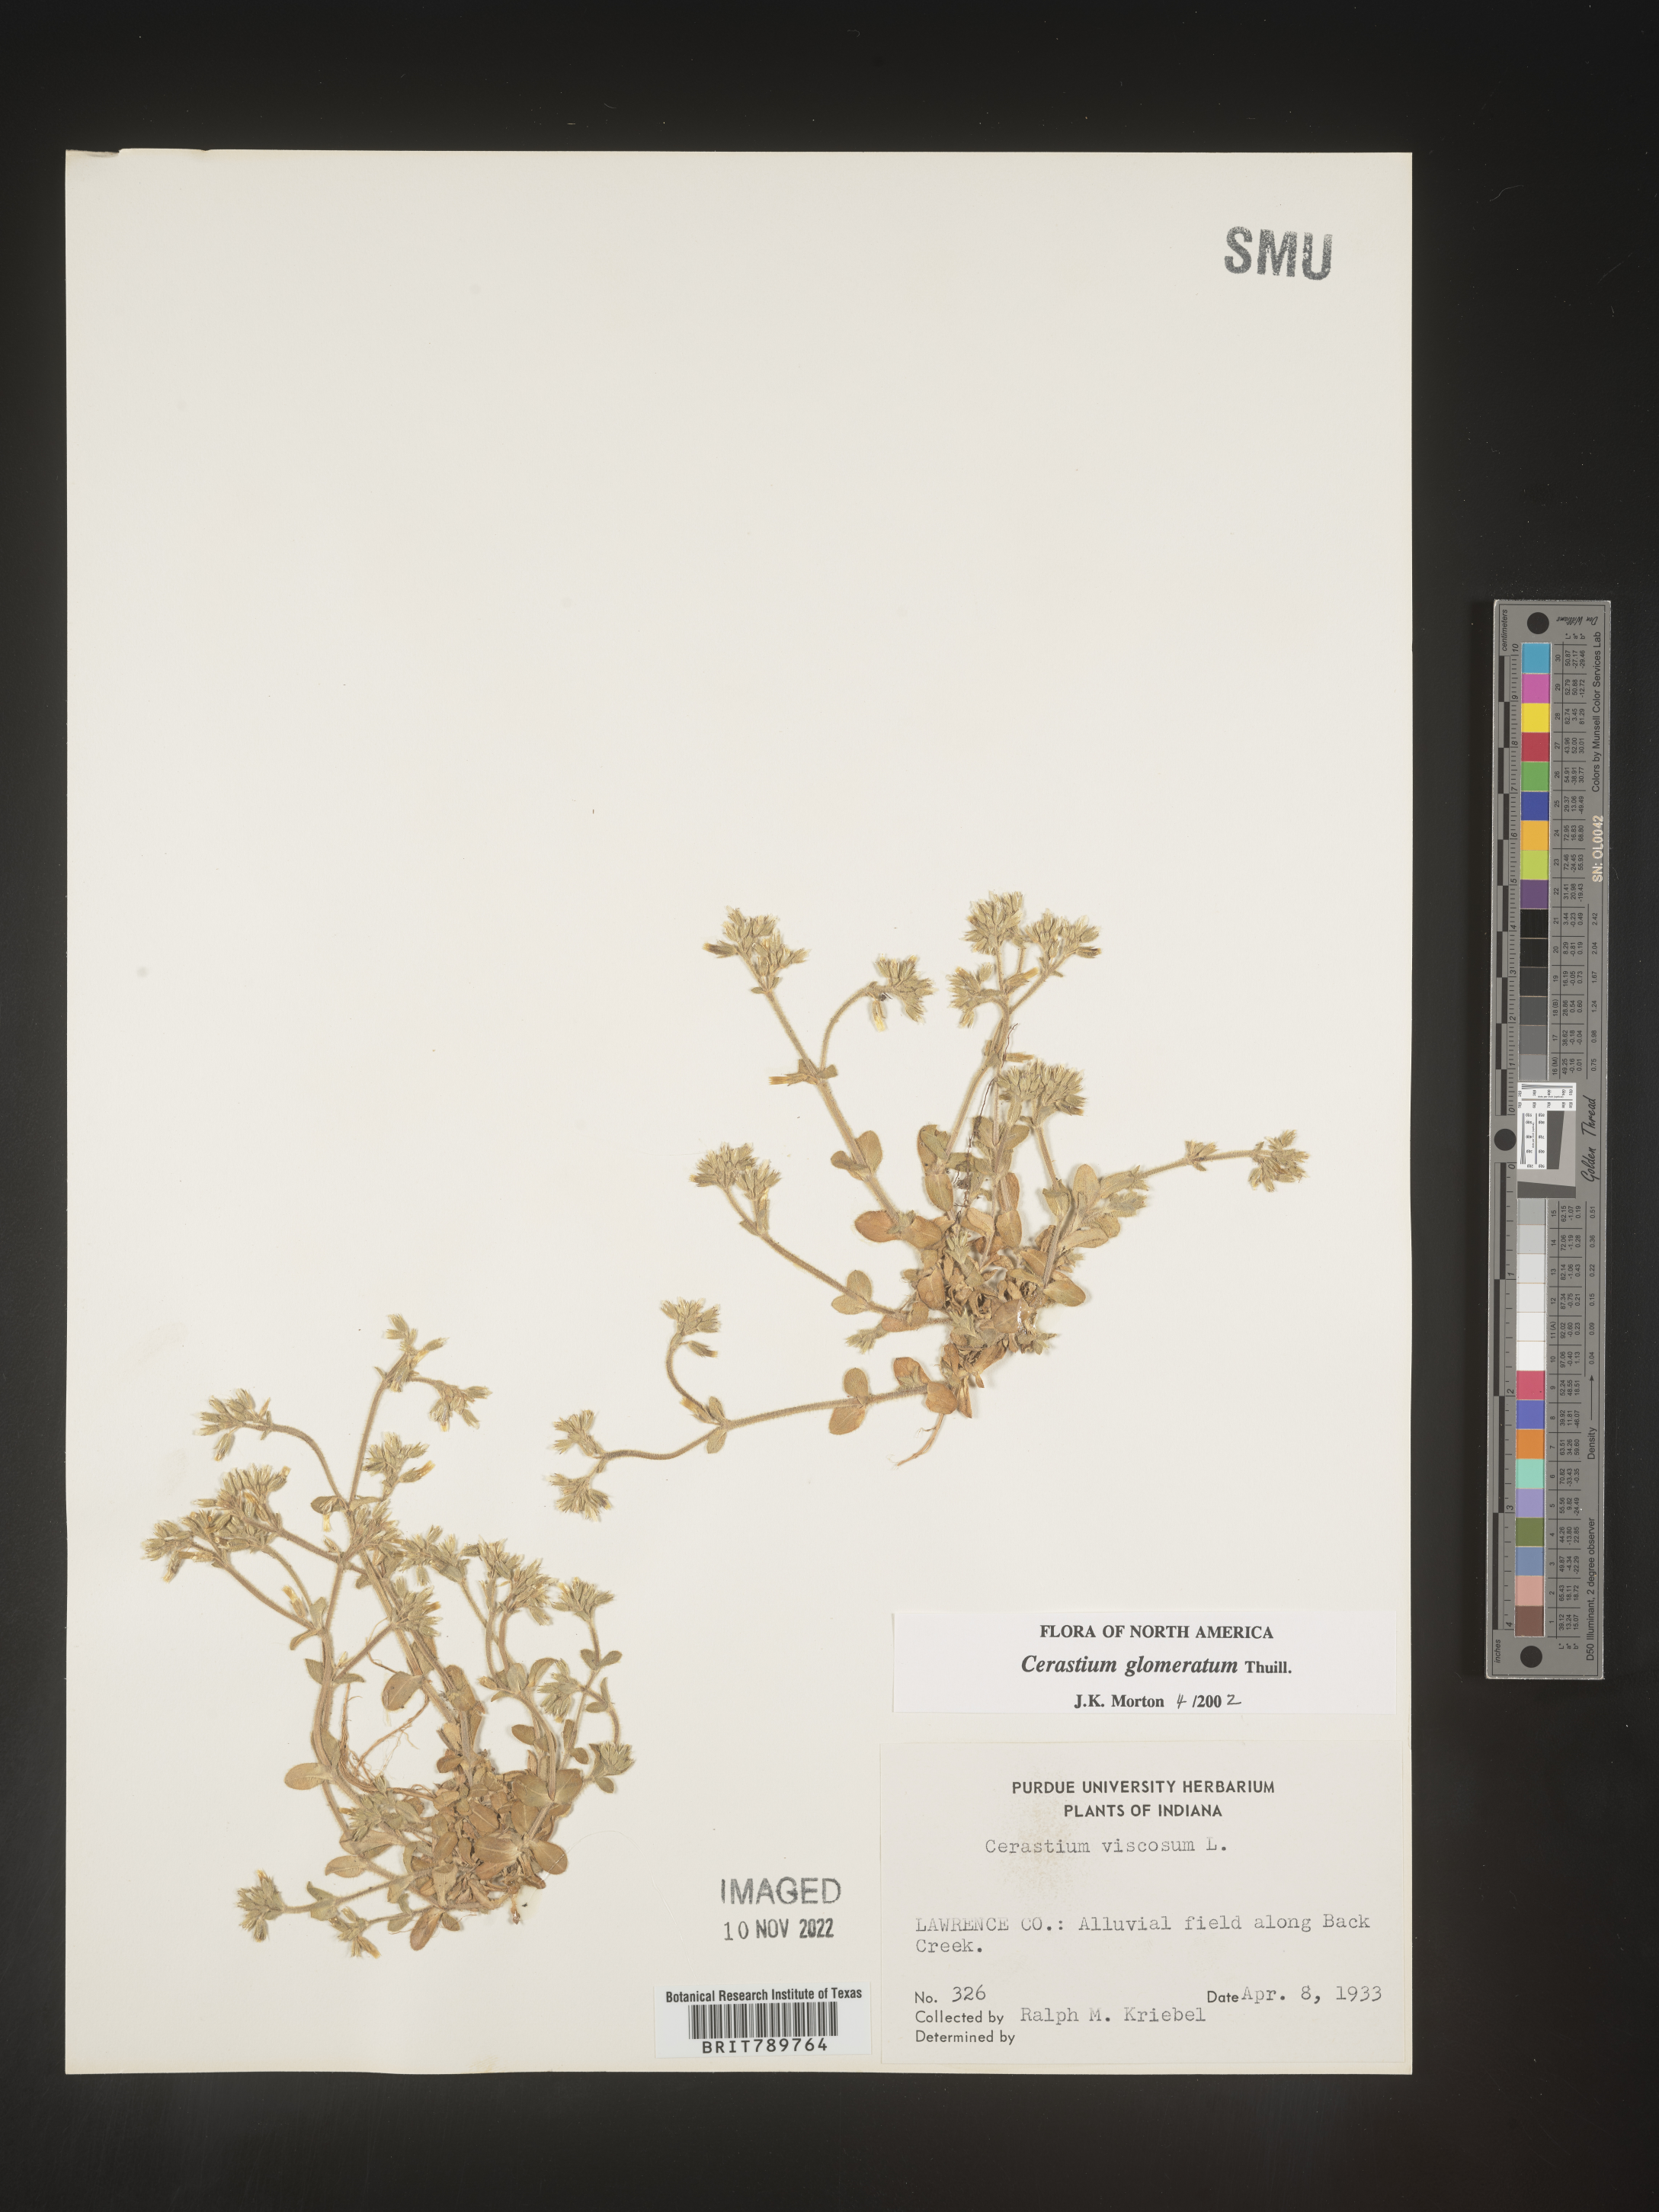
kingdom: Plantae
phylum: Tracheophyta
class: Magnoliopsida
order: Caryophyllales
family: Caryophyllaceae
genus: Cerastium
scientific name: Cerastium glomeratum
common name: Sticky chickweed
